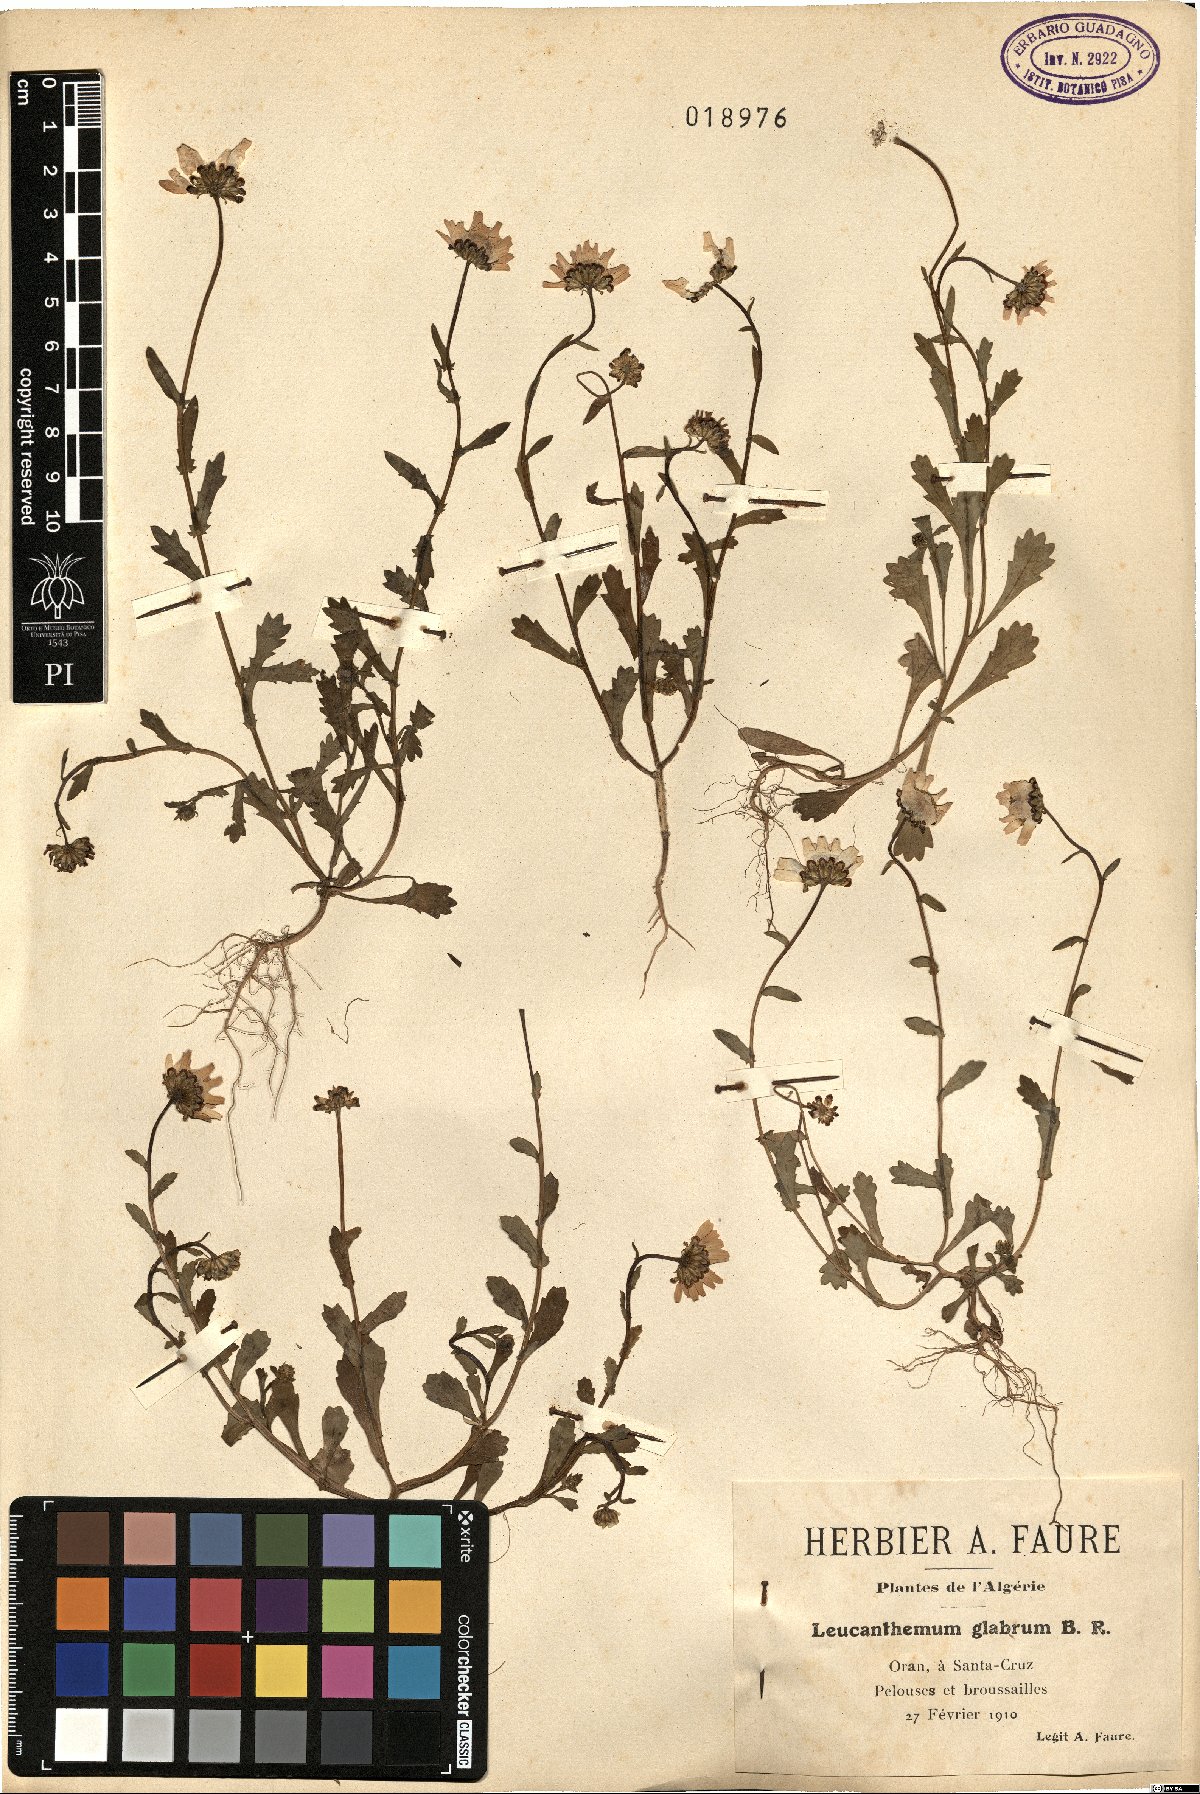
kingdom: Plantae
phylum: Tracheophyta
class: Magnoliopsida
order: Asterales
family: Asteraceae
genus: Mauranthemum
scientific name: Mauranthemum paludosum
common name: Sunflower
